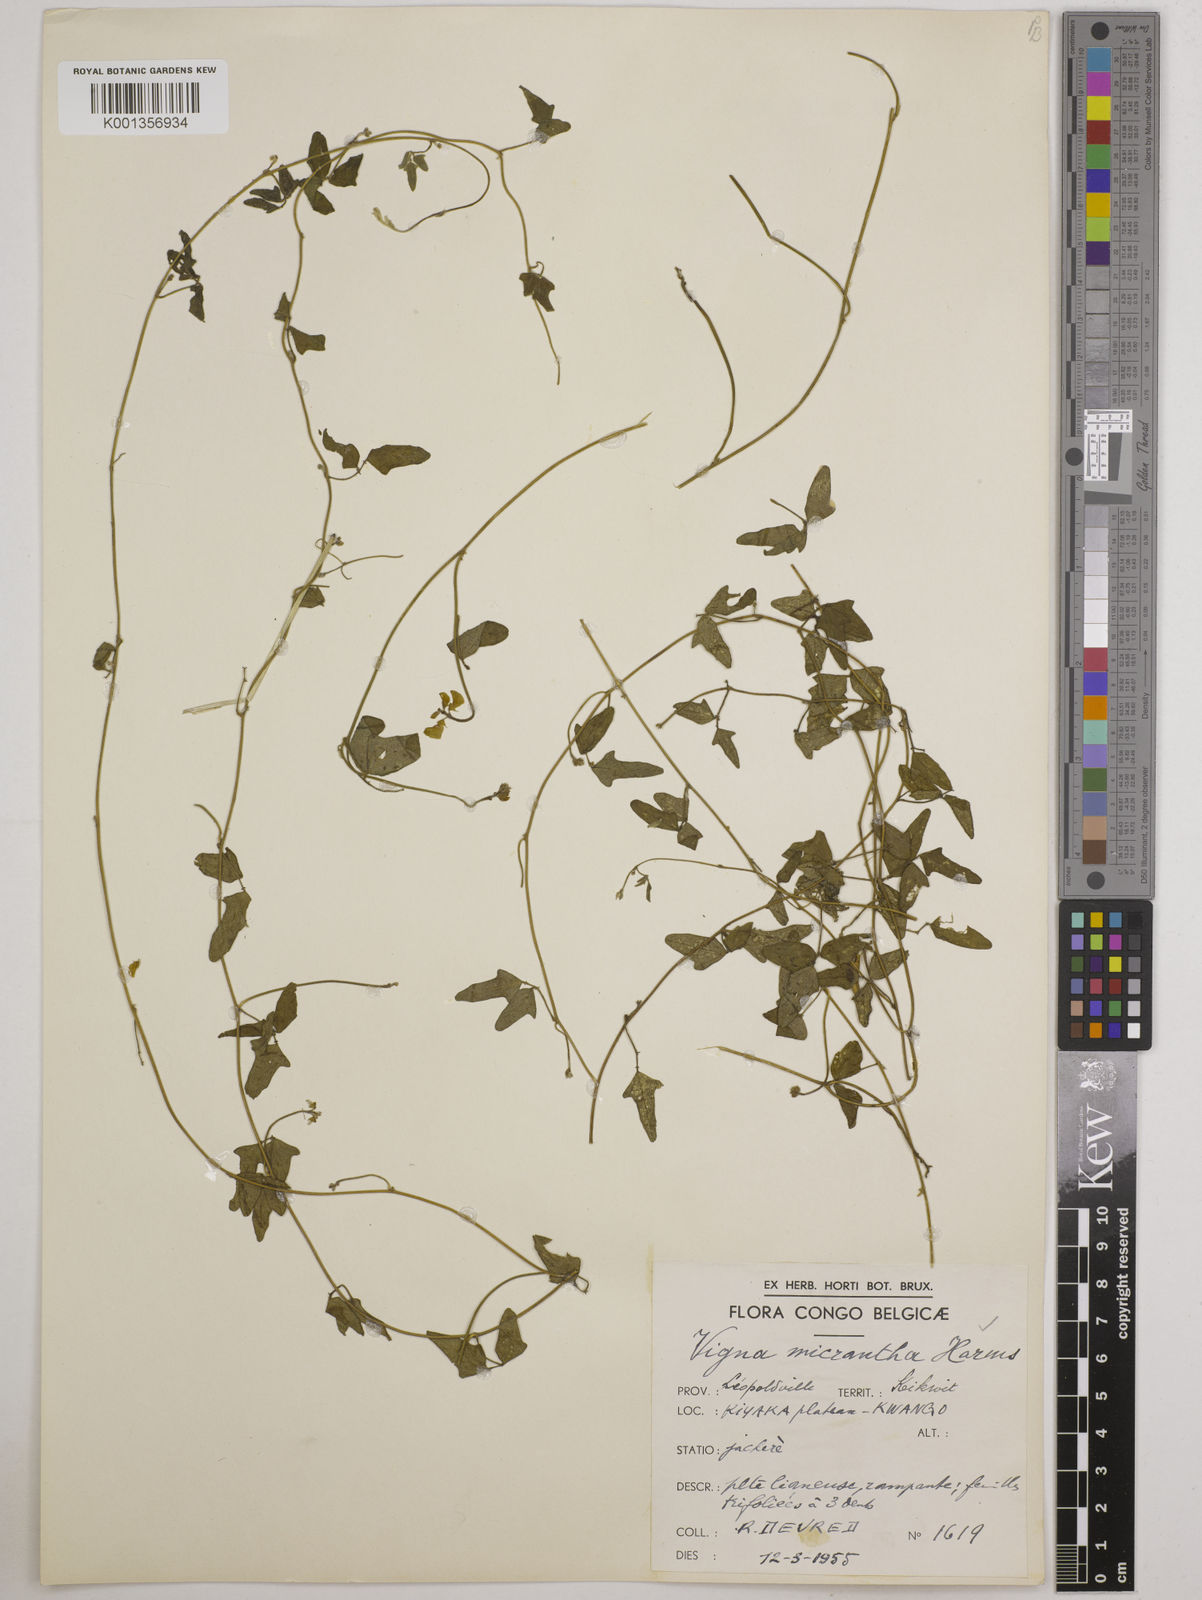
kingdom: Plantae
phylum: Tracheophyta
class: Magnoliopsida
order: Fabales
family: Fabaceae
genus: Vigna
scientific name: Vigna comosa
